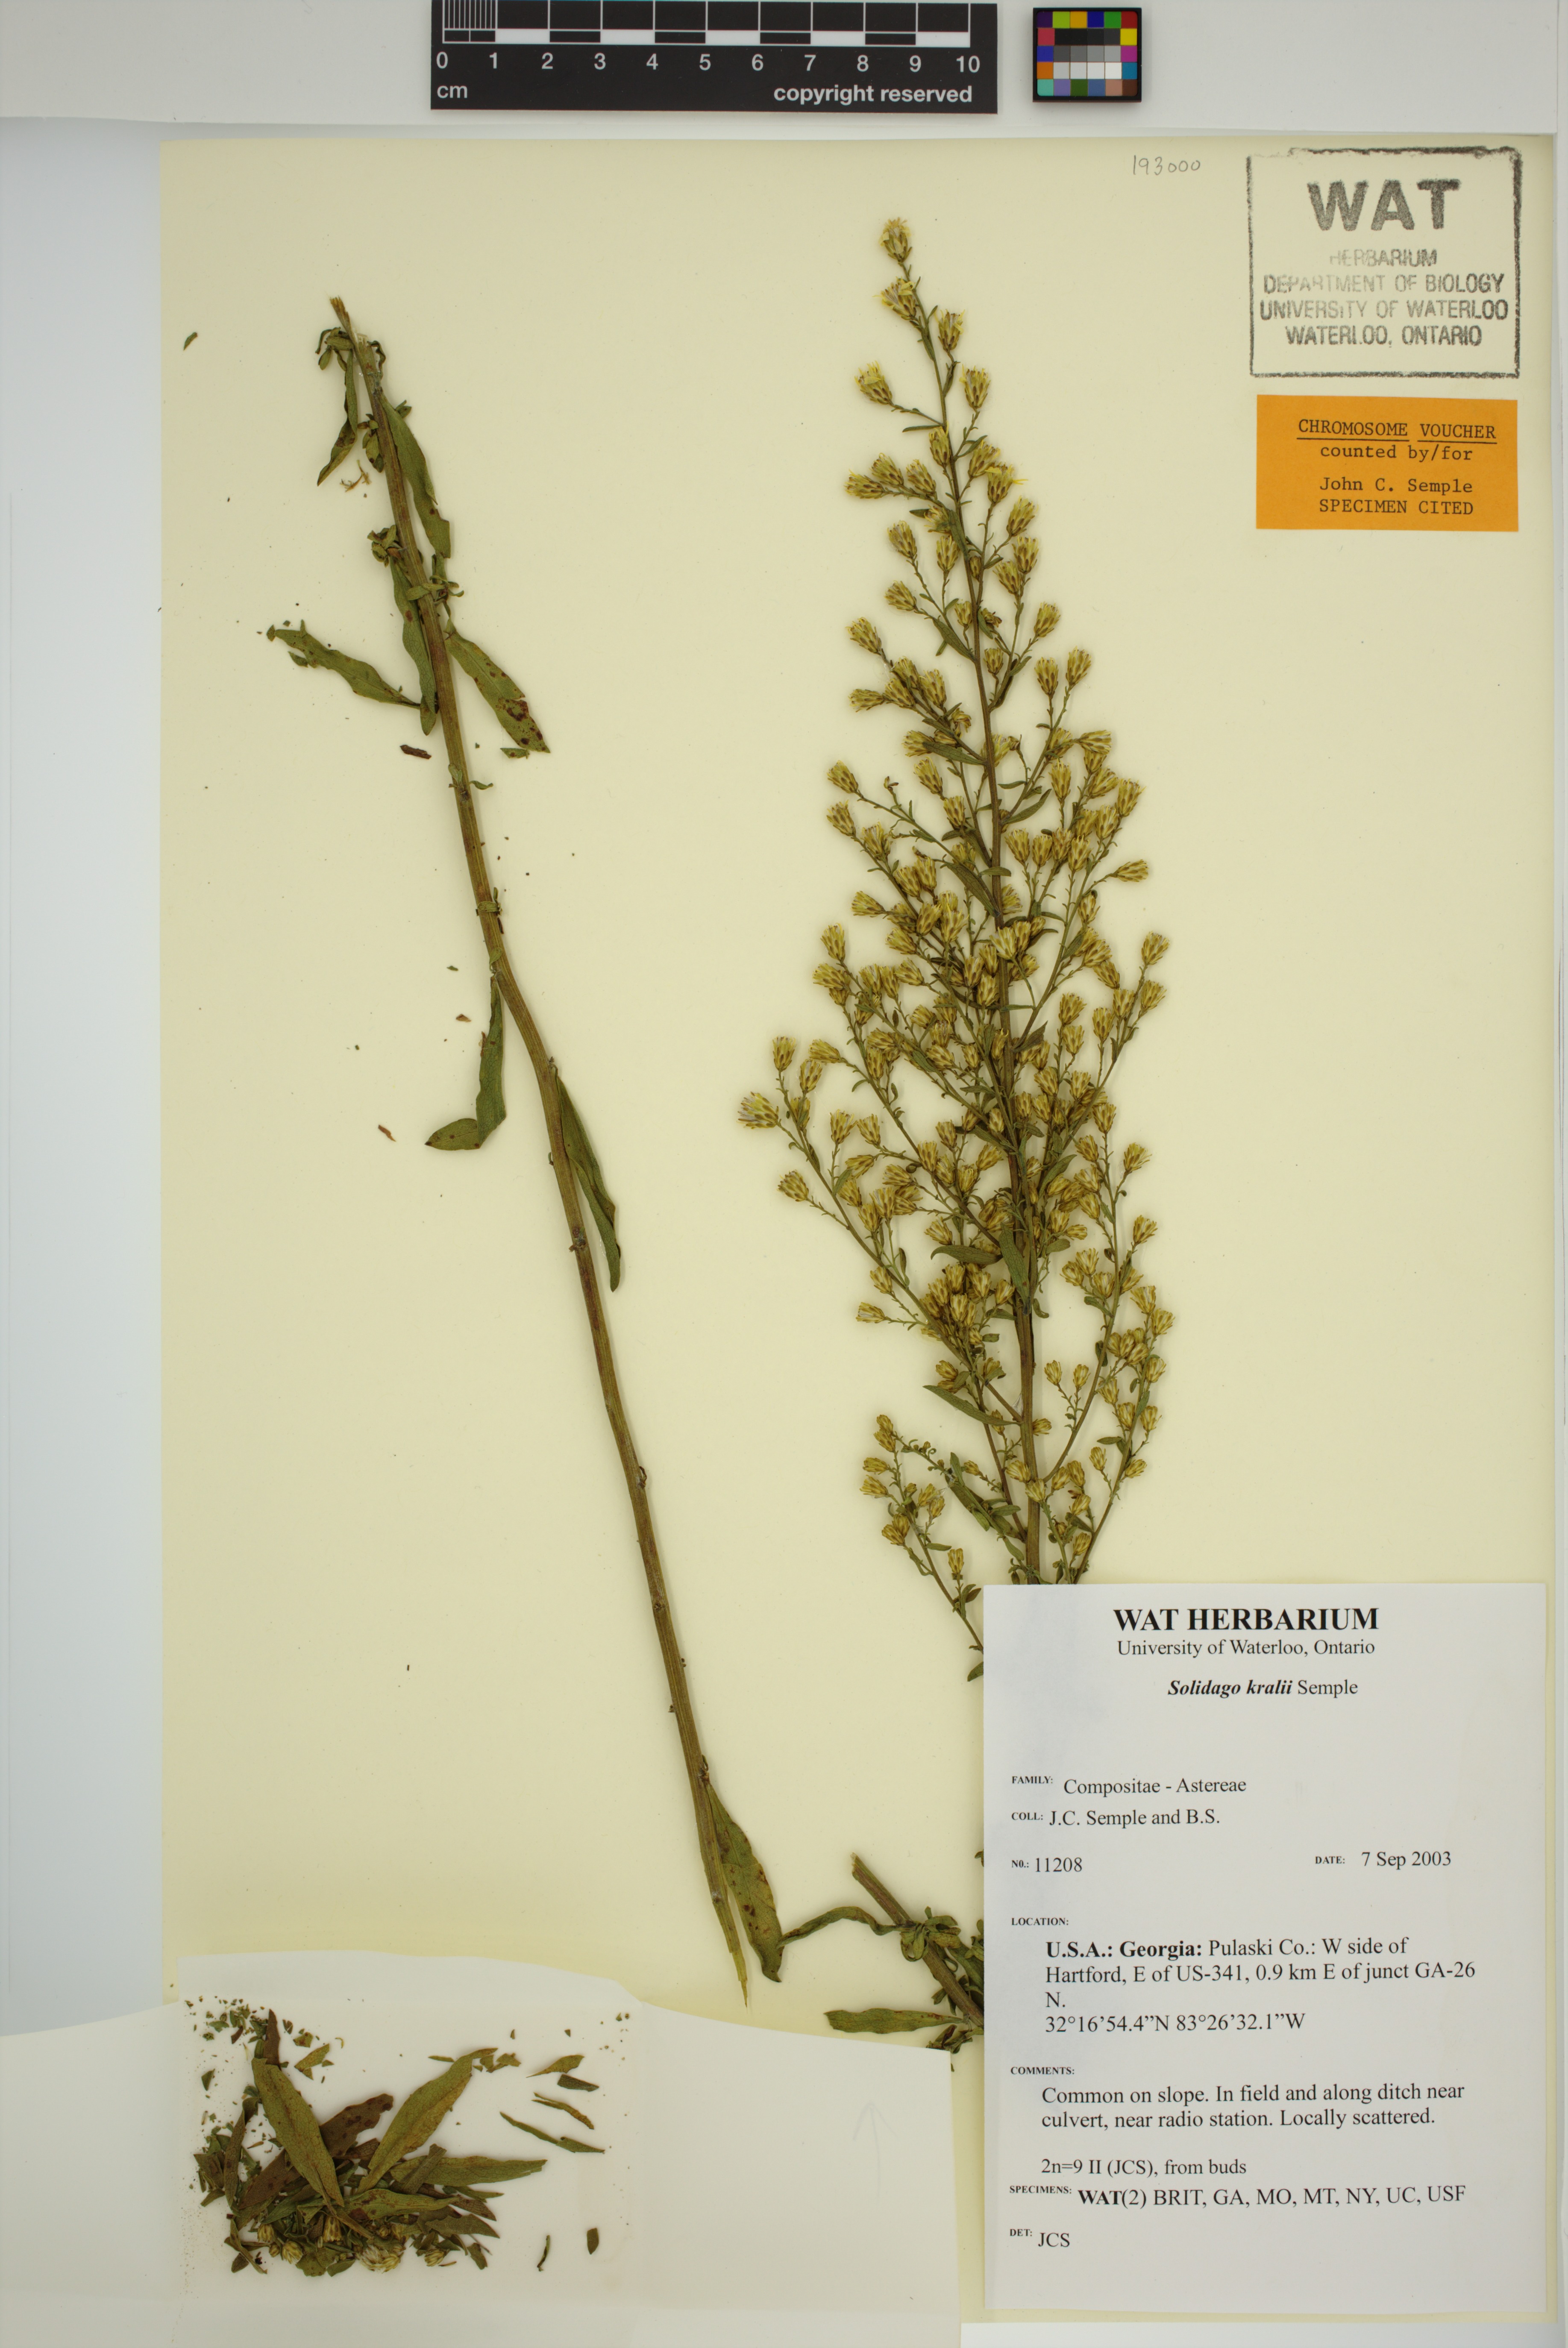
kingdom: Plantae
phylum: Tracheophyta
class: Magnoliopsida
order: Asterales
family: Asteraceae
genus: Solidago
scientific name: Solidago kralii
